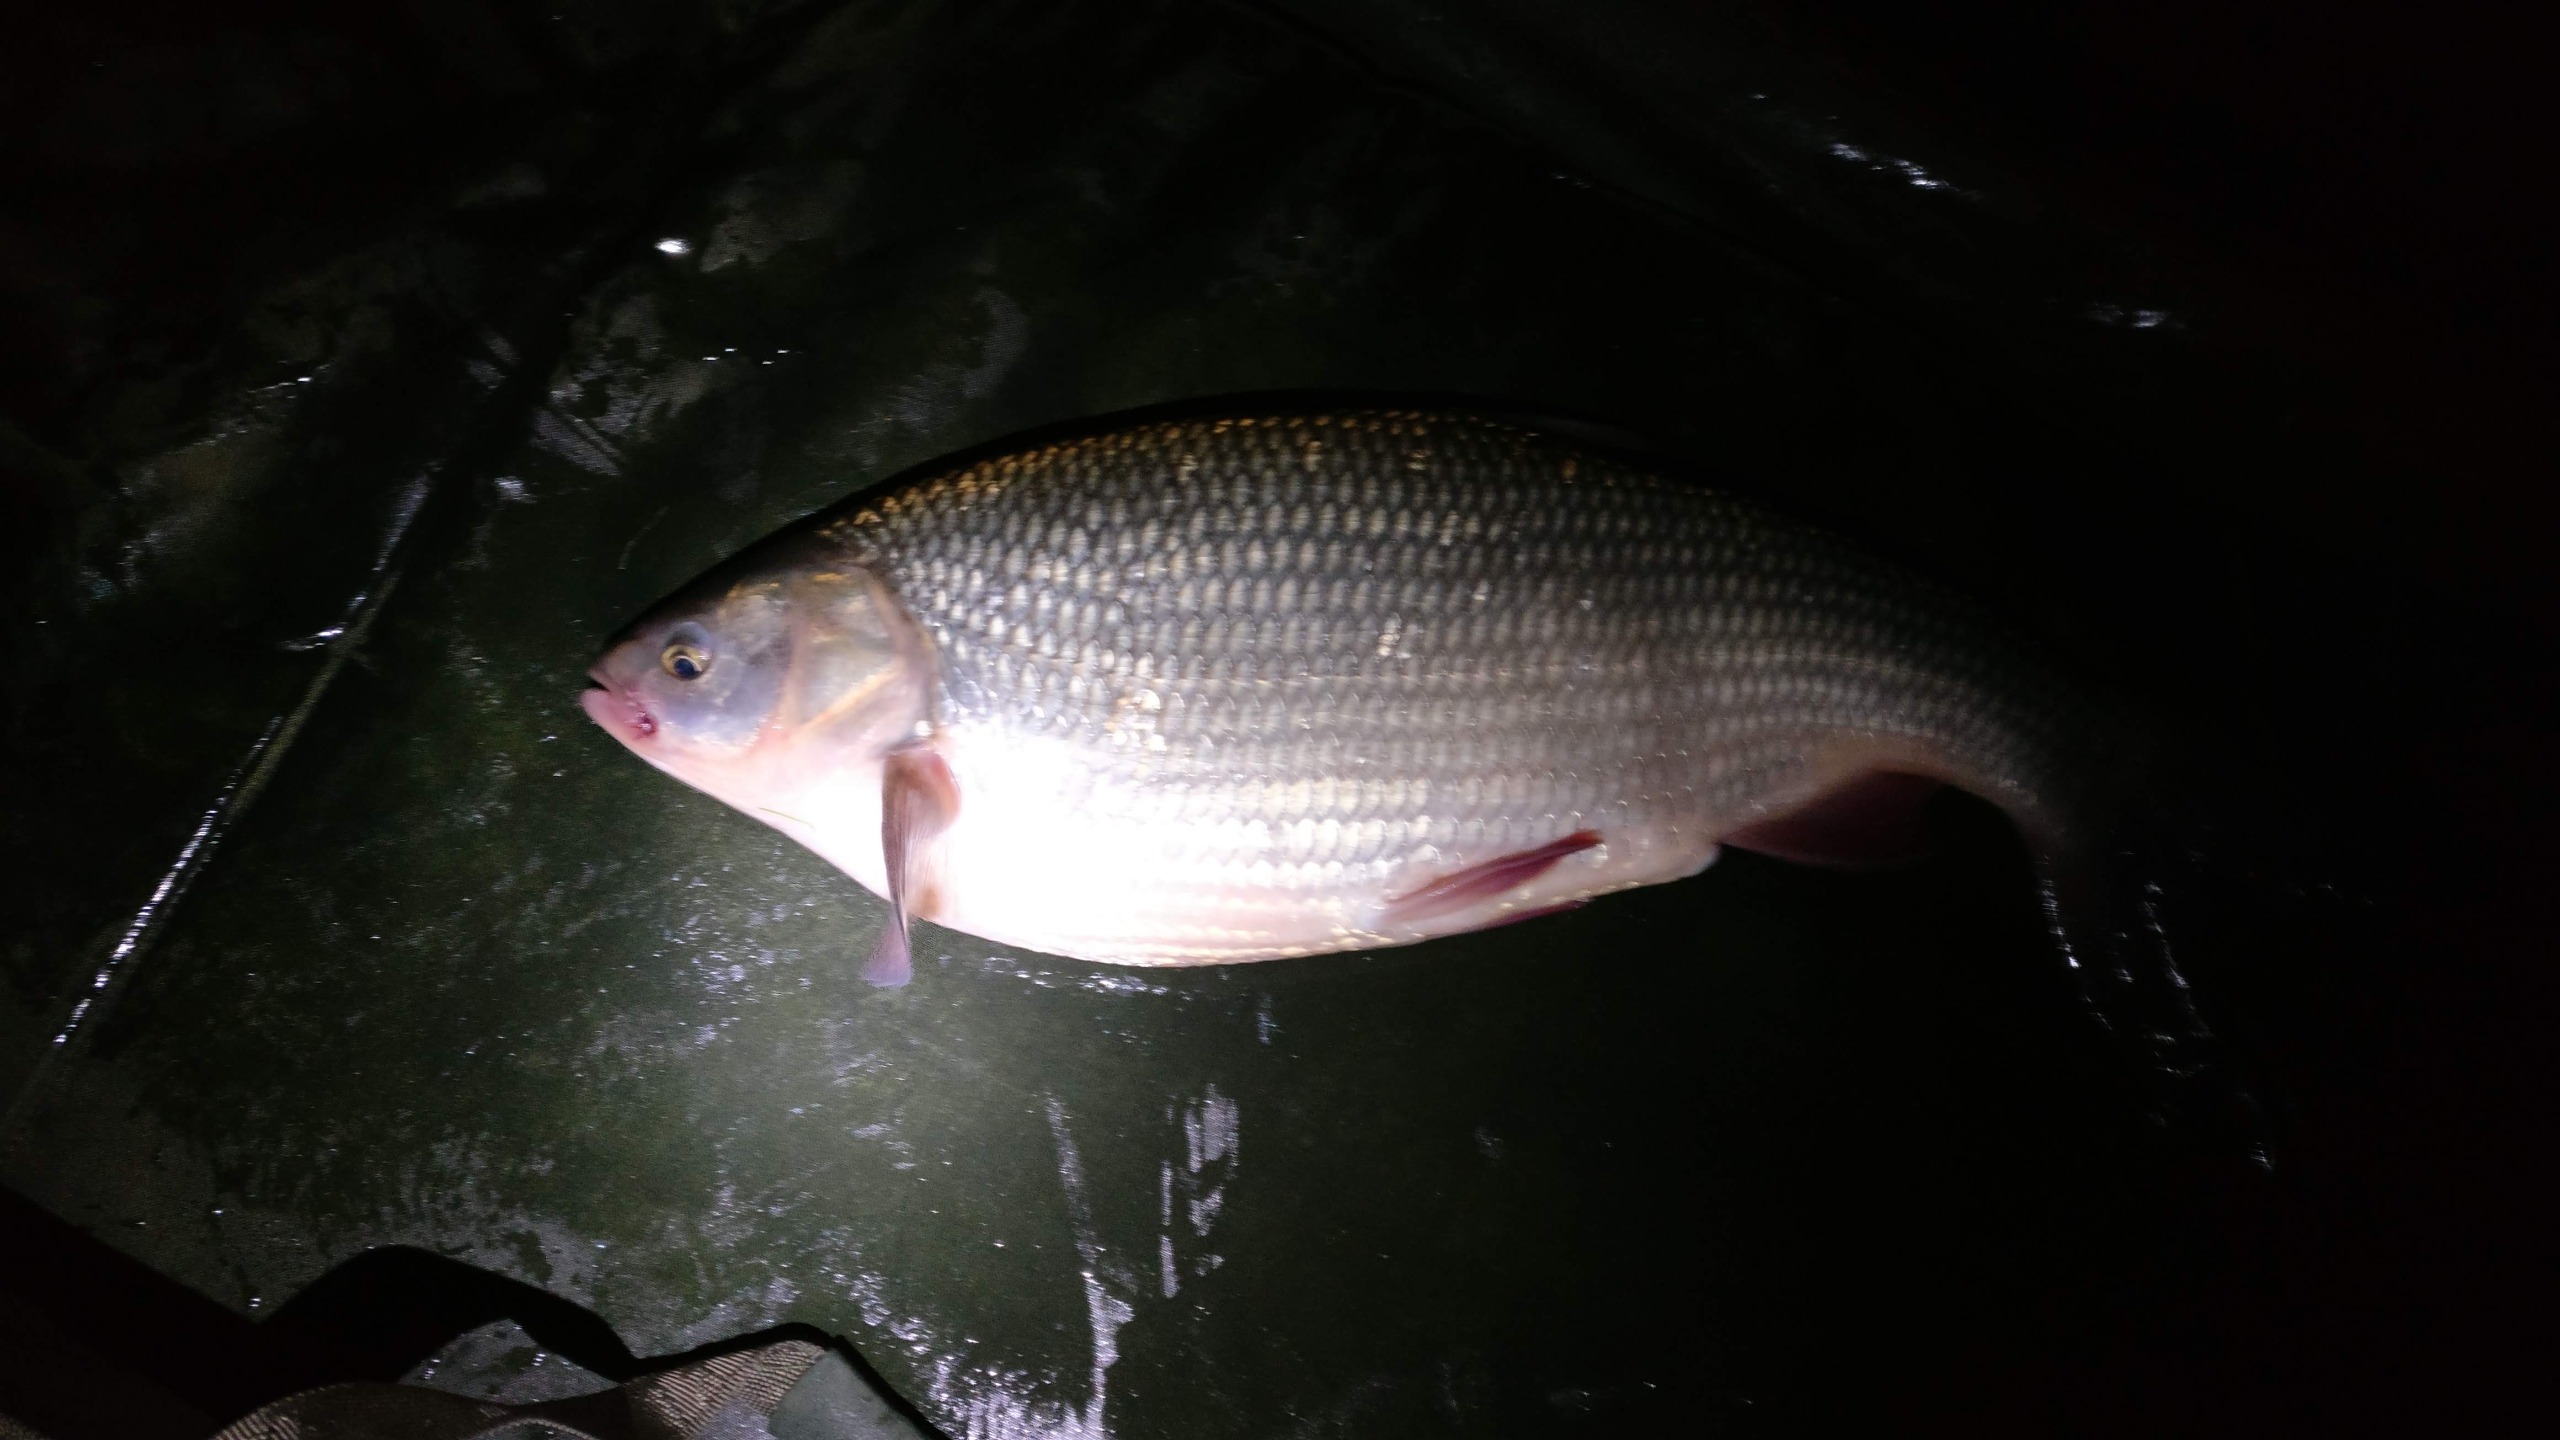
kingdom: Animalia
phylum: Chordata
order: Cypriniformes
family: Cyprinidae
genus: Leuciscus
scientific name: Leuciscus idus
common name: Rimte
